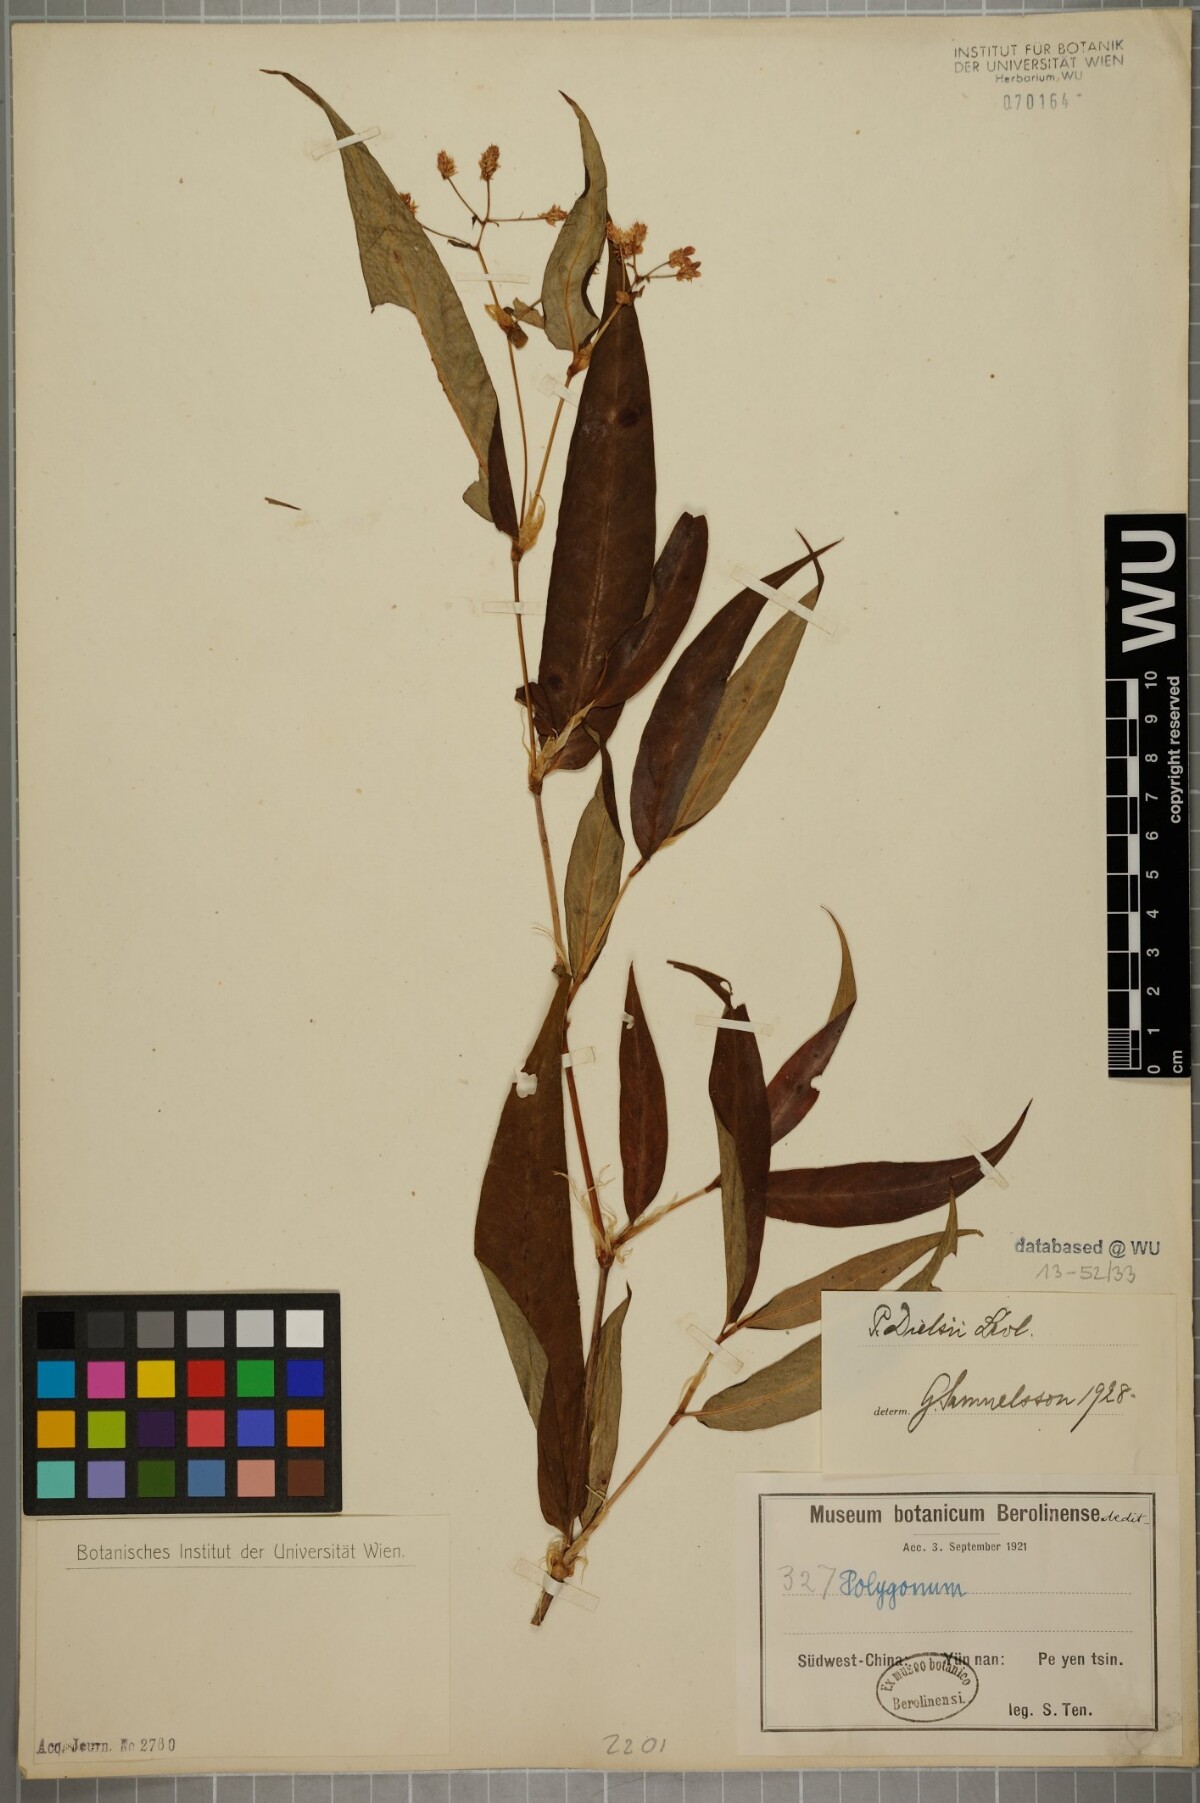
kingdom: Plantae
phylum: Tracheophyta
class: Magnoliopsida
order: Caryophyllales
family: Polygonaceae
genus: Persicaria
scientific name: Persicaria paradoxa
